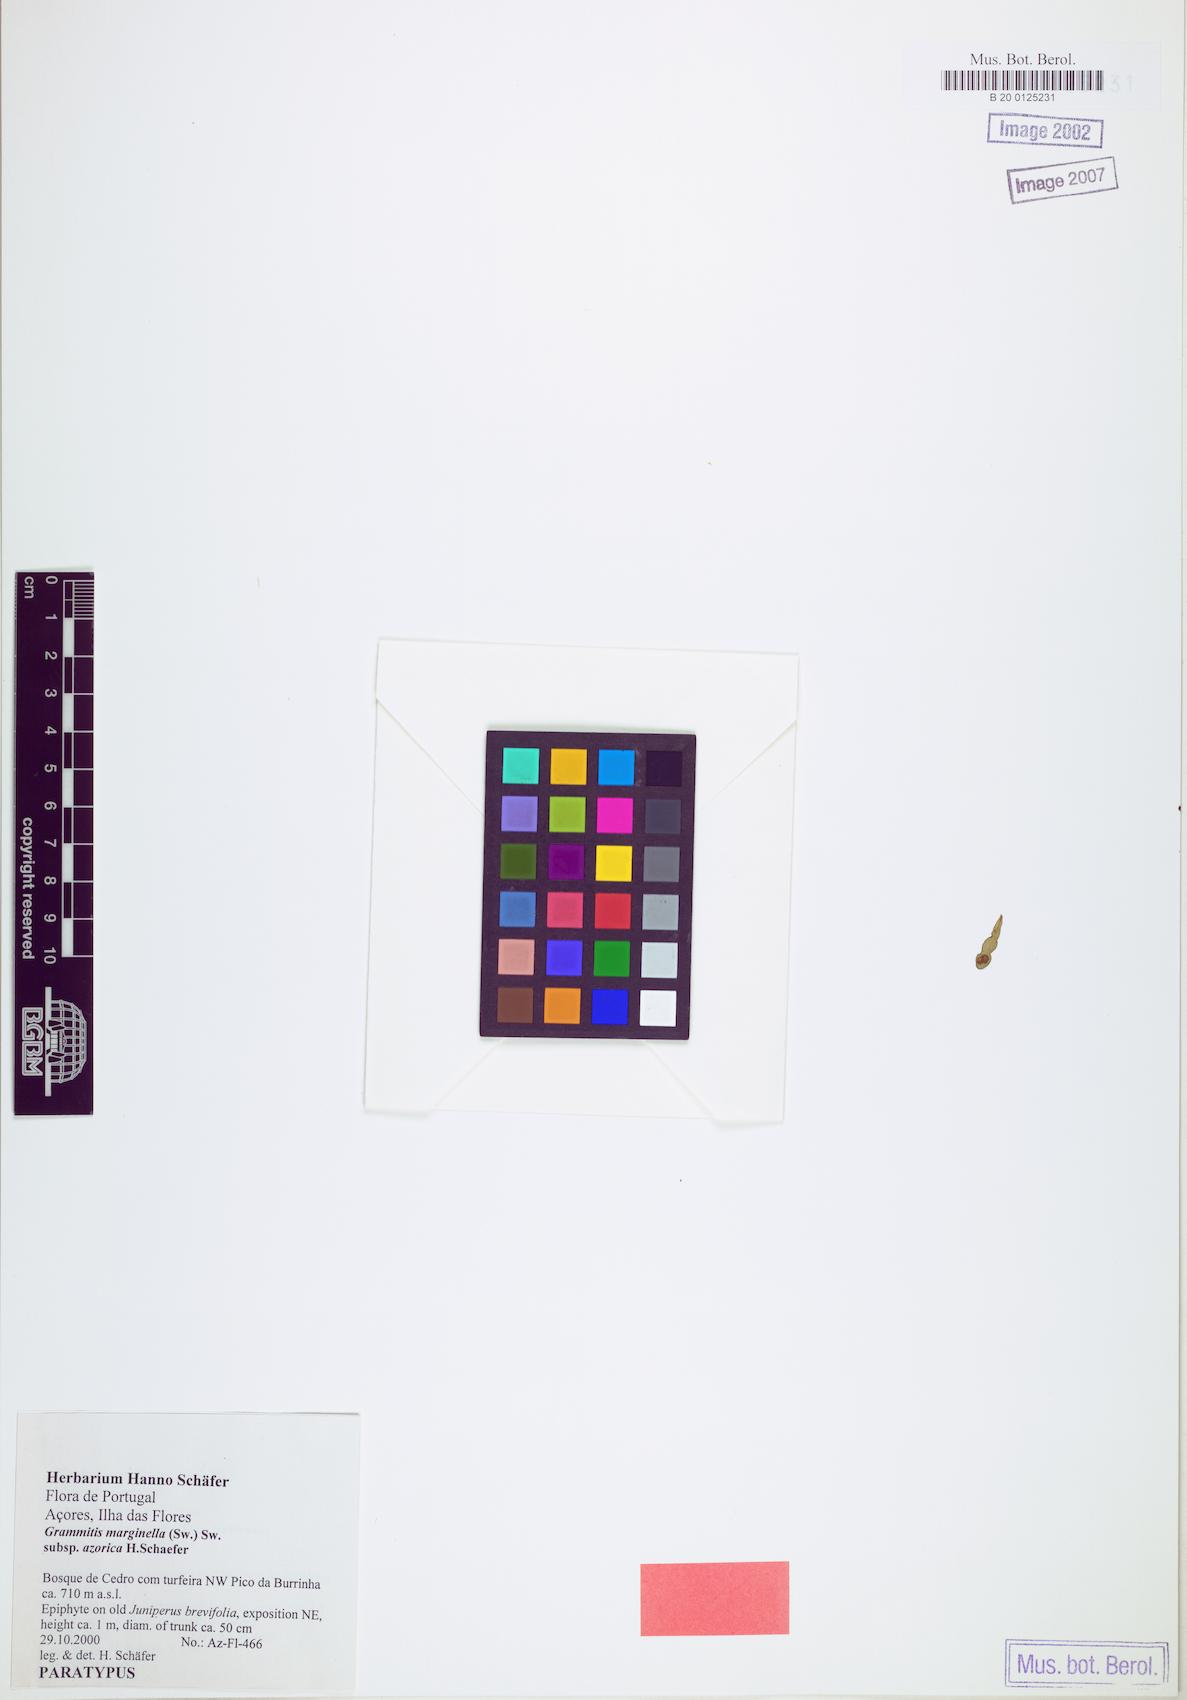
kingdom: Plantae
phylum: Tracheophyta
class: Polypodiopsida
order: Polypodiales
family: Polypodiaceae
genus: Grammitis
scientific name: Grammitis azorica
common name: Azorean finger fern
